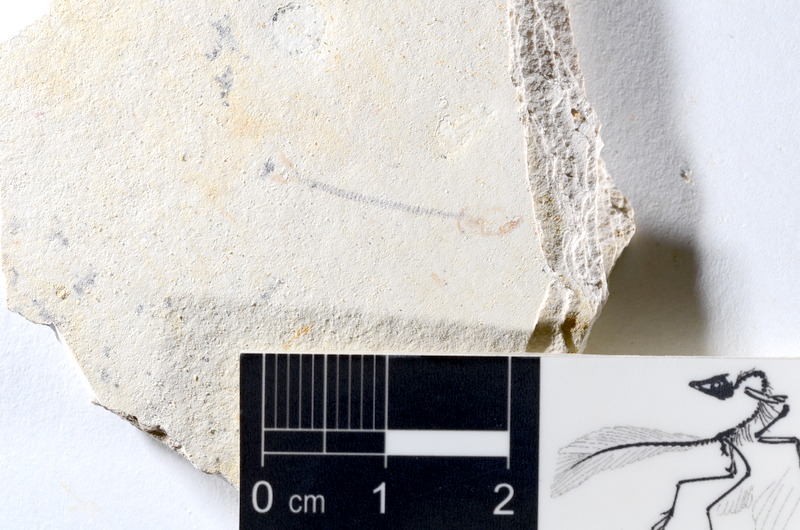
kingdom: Animalia
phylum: Chordata
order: Salmoniformes
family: Orthogonikleithridae
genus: Orthogonikleithrus
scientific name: Orthogonikleithrus hoelli
